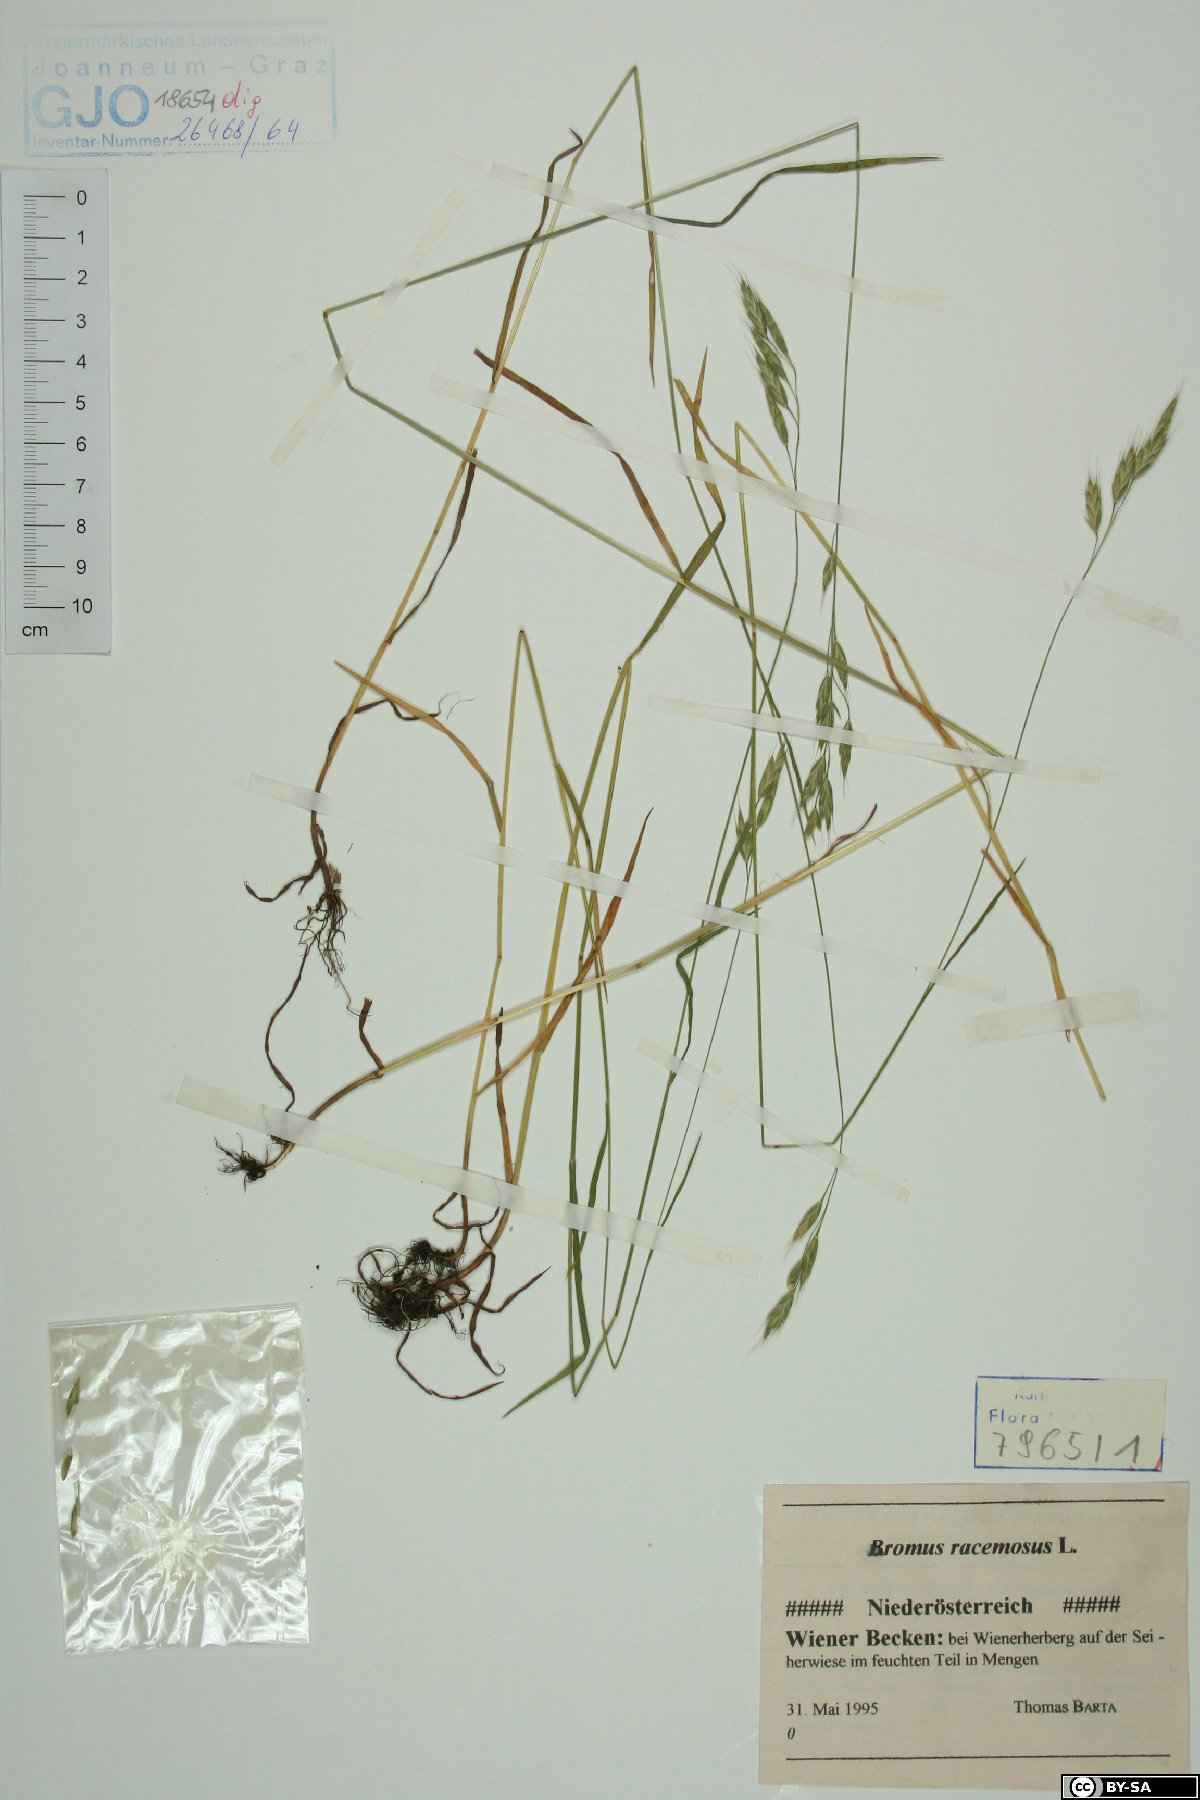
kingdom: Plantae
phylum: Tracheophyta
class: Liliopsida
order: Poales
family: Poaceae
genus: Bromus
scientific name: Bromus racemosus
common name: Bald brome
